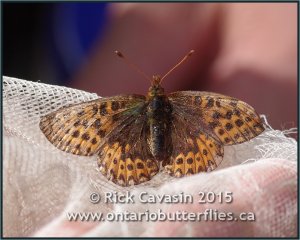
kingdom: Animalia
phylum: Arthropoda
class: Insecta
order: Lepidoptera
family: Nymphalidae
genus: Boloria
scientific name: Boloria freija
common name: Freija Fritillary
